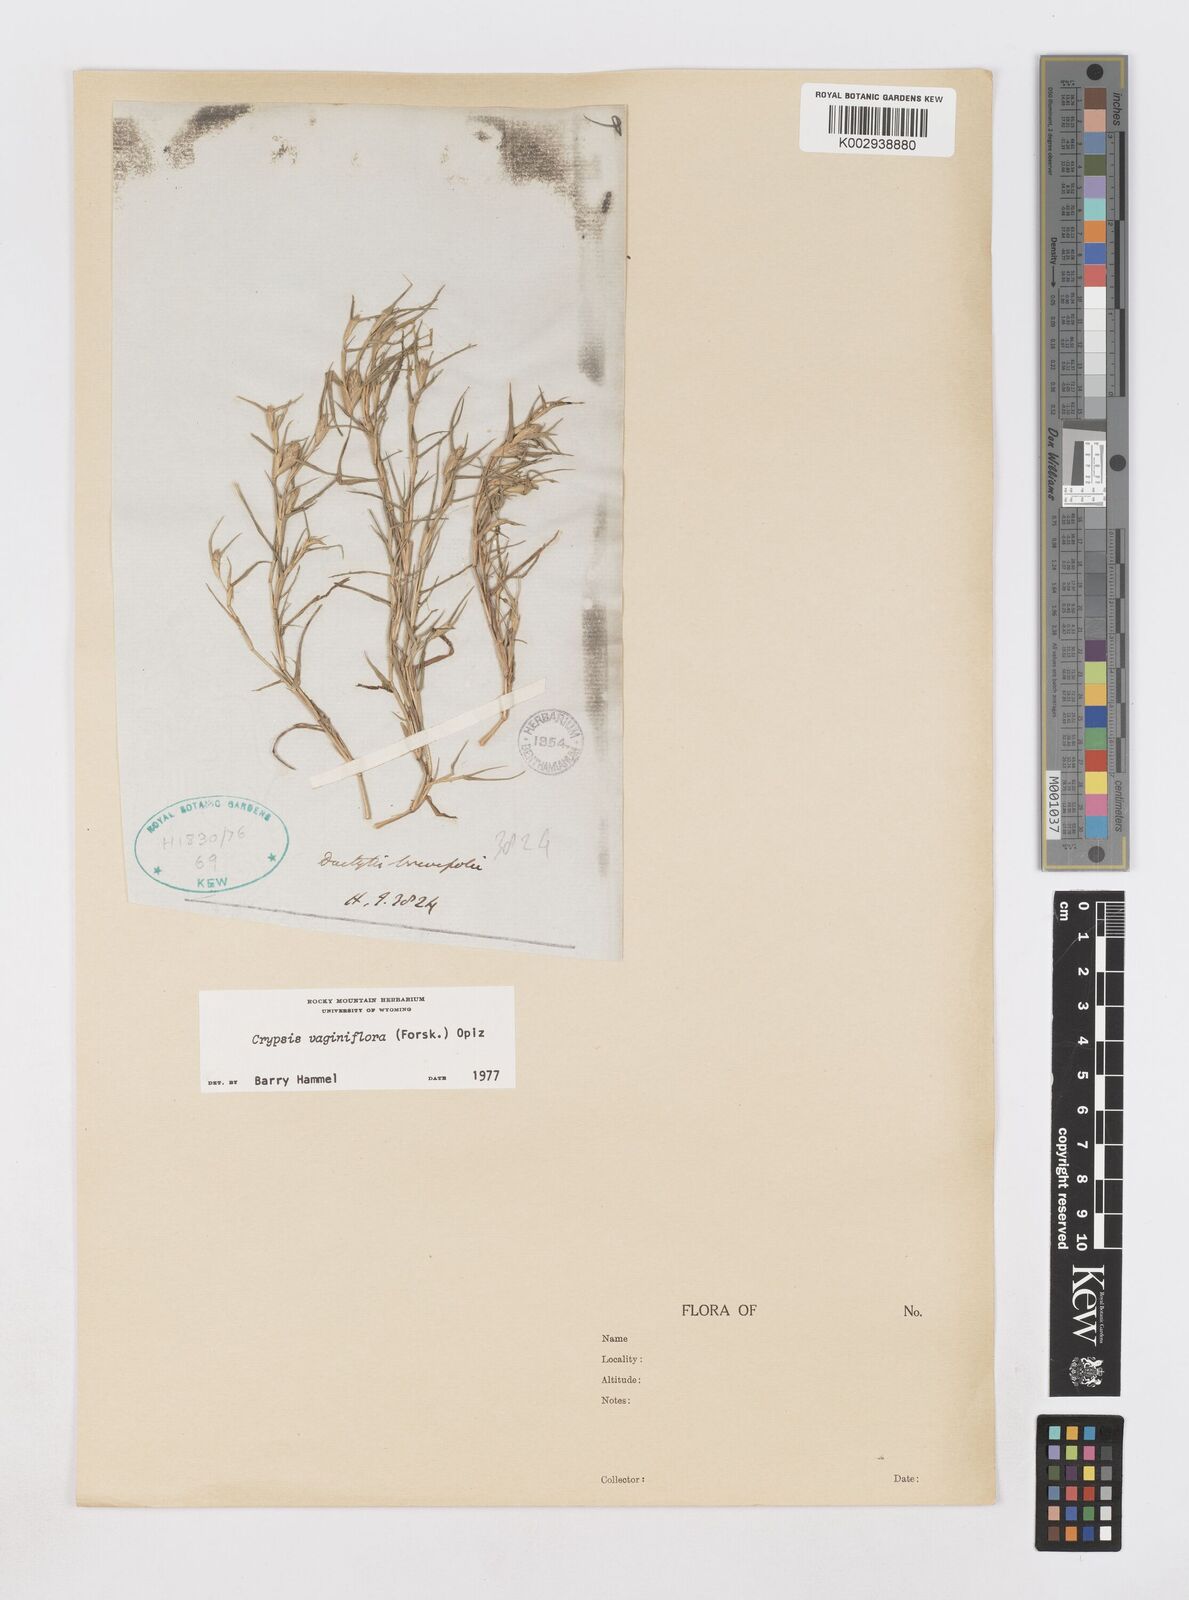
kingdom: Plantae
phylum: Tracheophyta
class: Liliopsida
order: Poales
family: Poaceae
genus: Sporobolus
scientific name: Sporobolus niliacus
